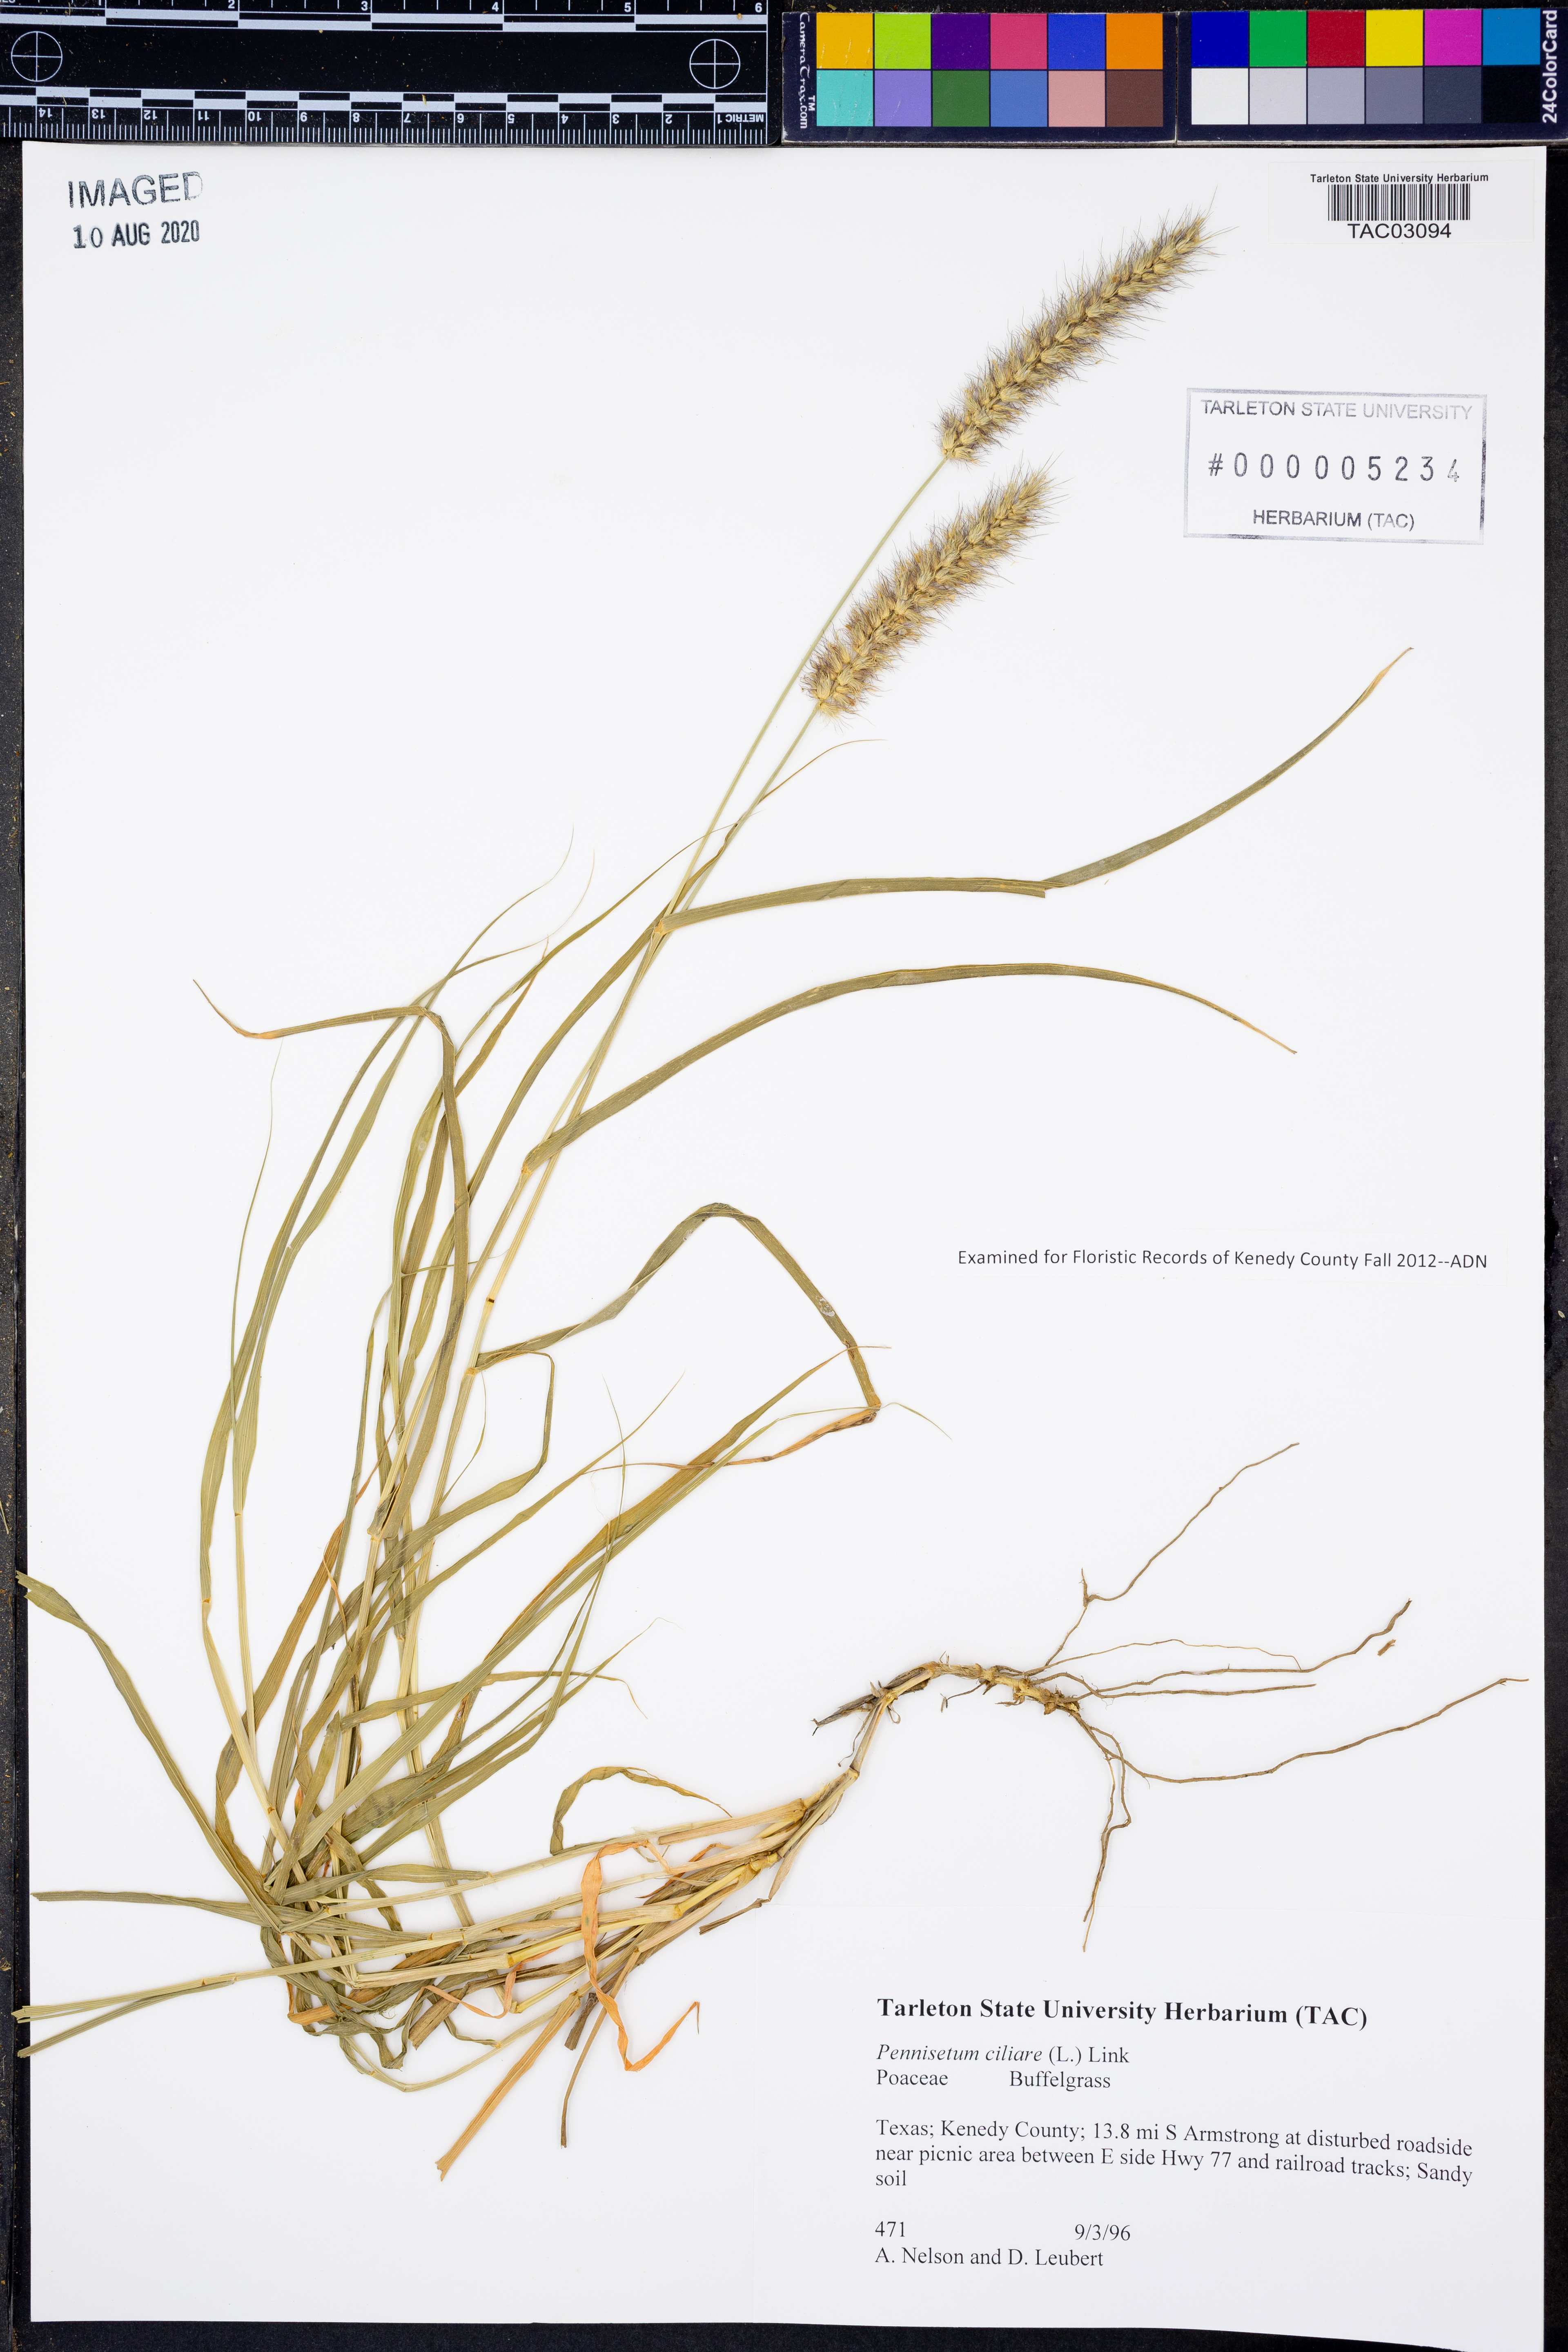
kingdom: Plantae
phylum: Tracheophyta
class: Liliopsida
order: Poales
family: Poaceae
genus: Cenchrus
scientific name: Cenchrus ciliaris
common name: Buffelgrass
